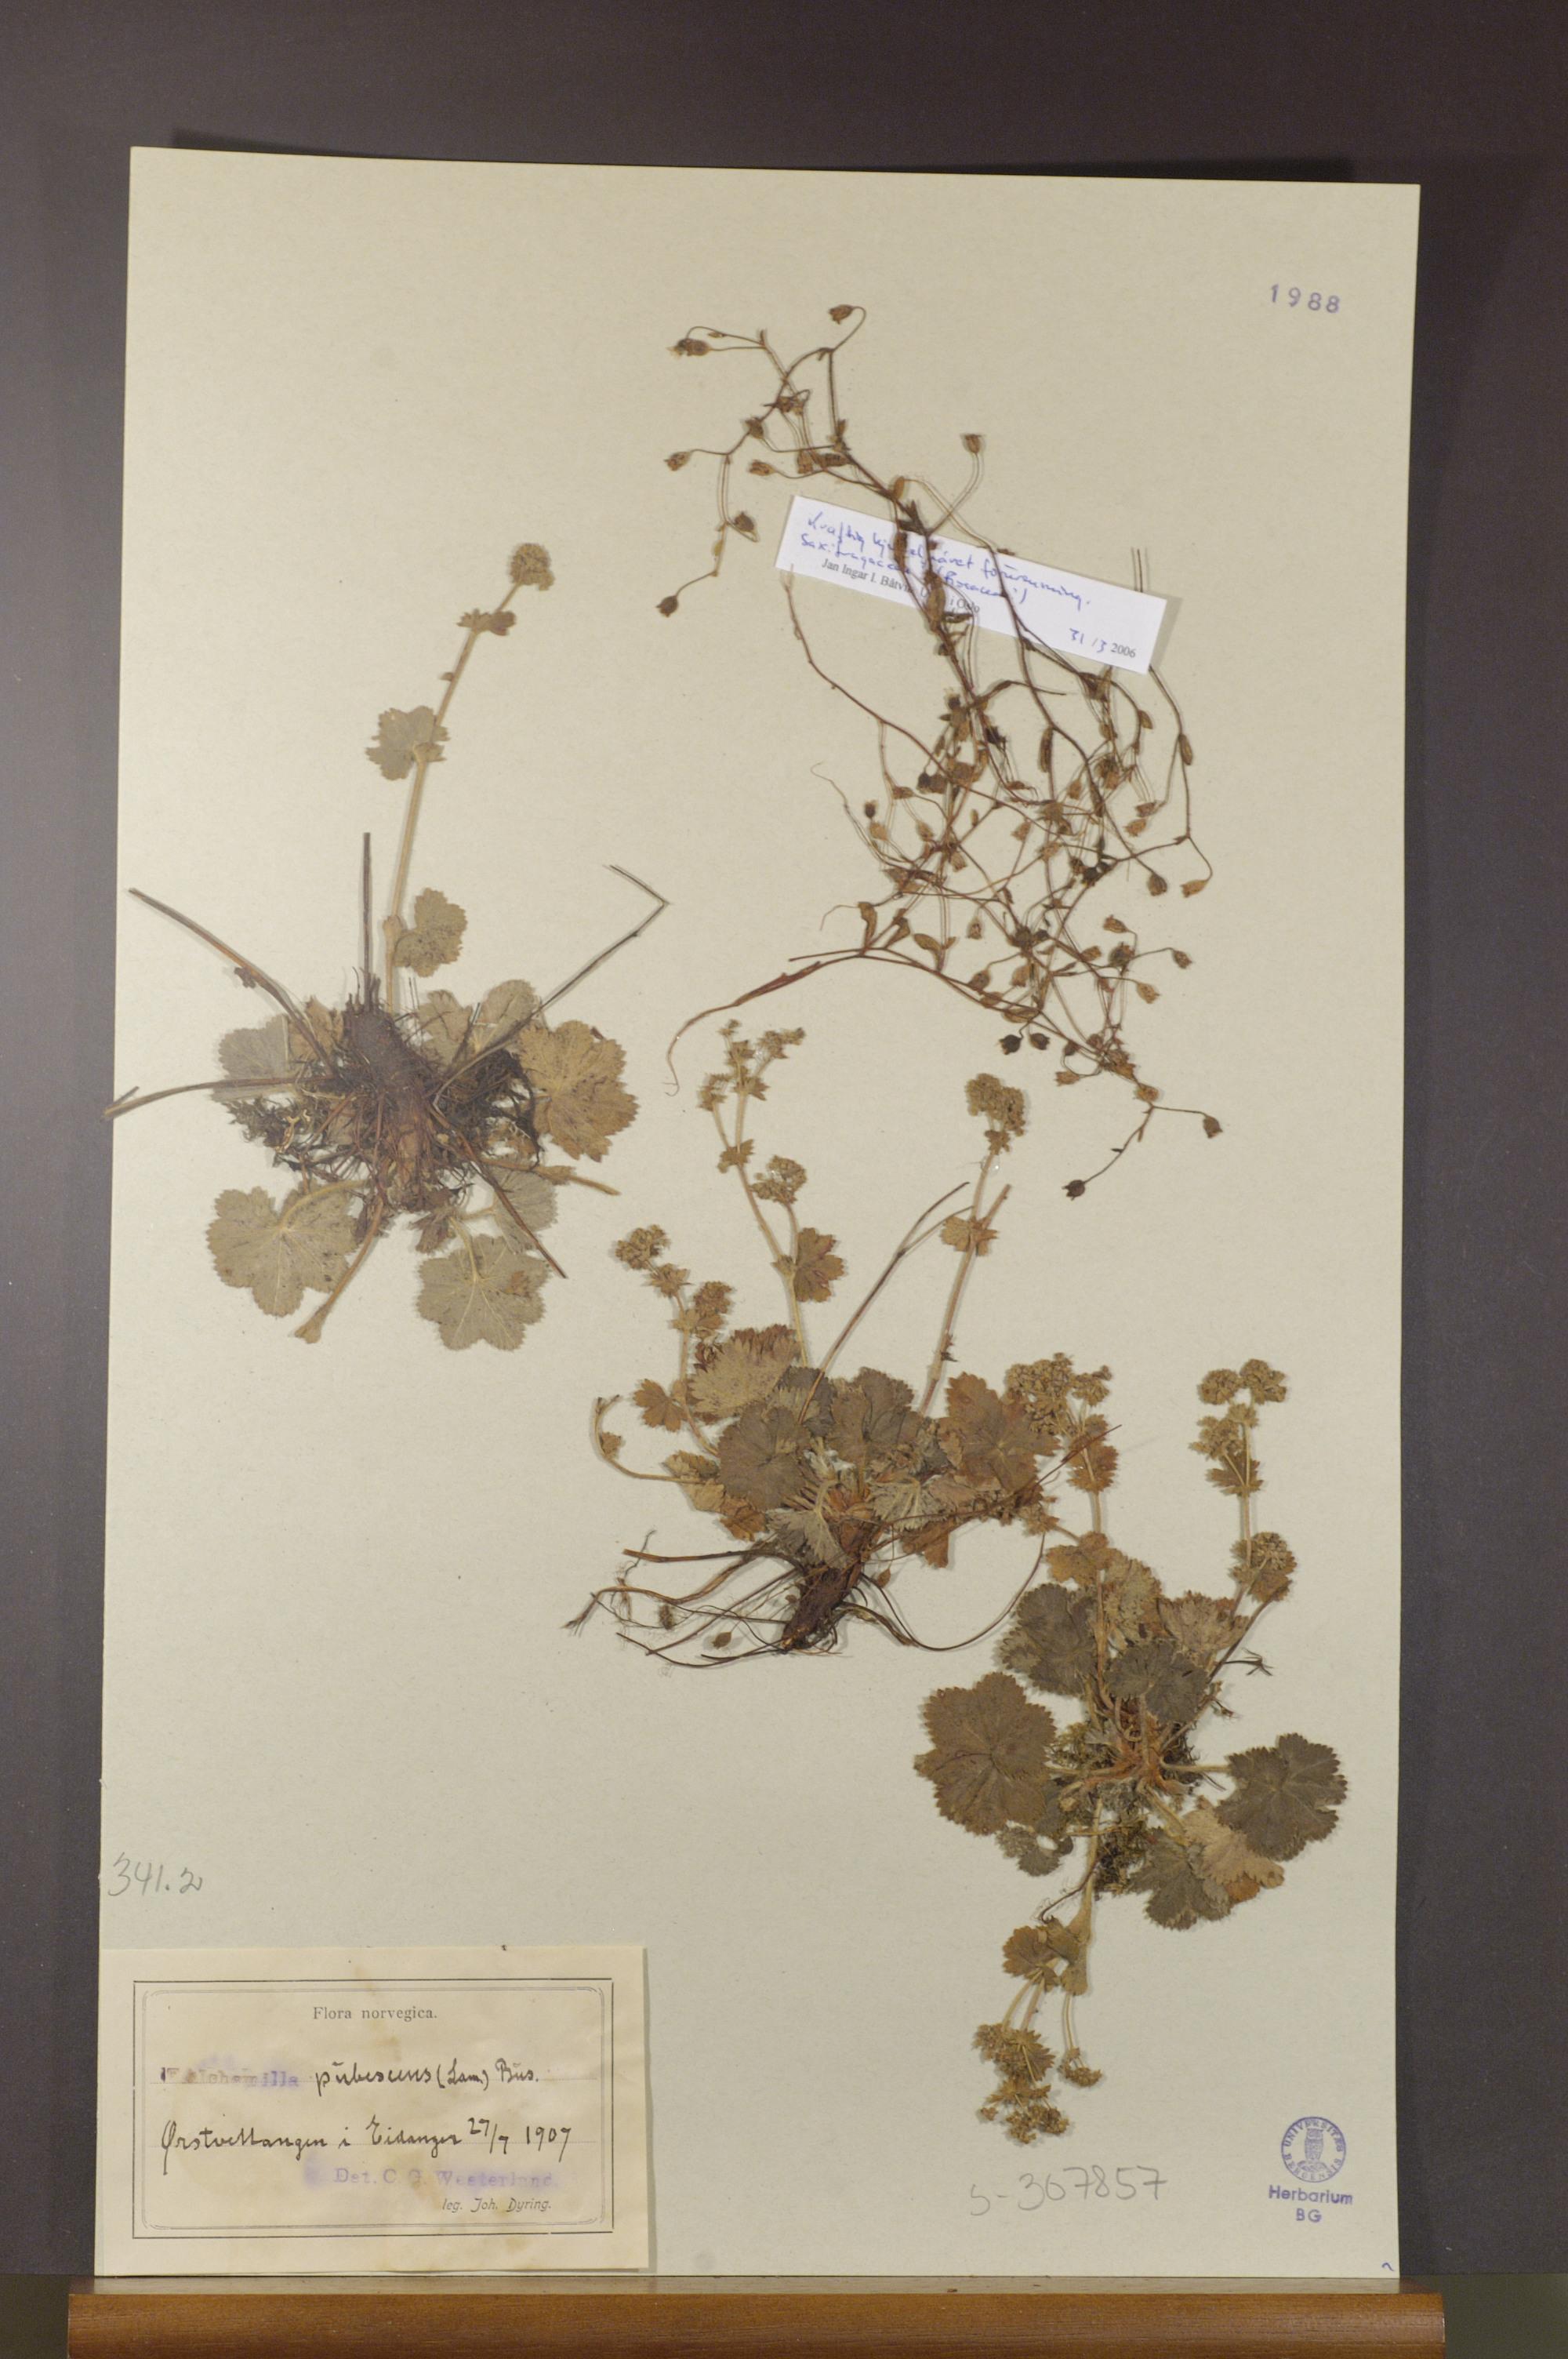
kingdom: Plantae
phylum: Tracheophyta
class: Magnoliopsida
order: Rosales
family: Rosaceae
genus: Alchemilla
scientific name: Alchemilla glaucescens
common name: Silky lady's mantle
